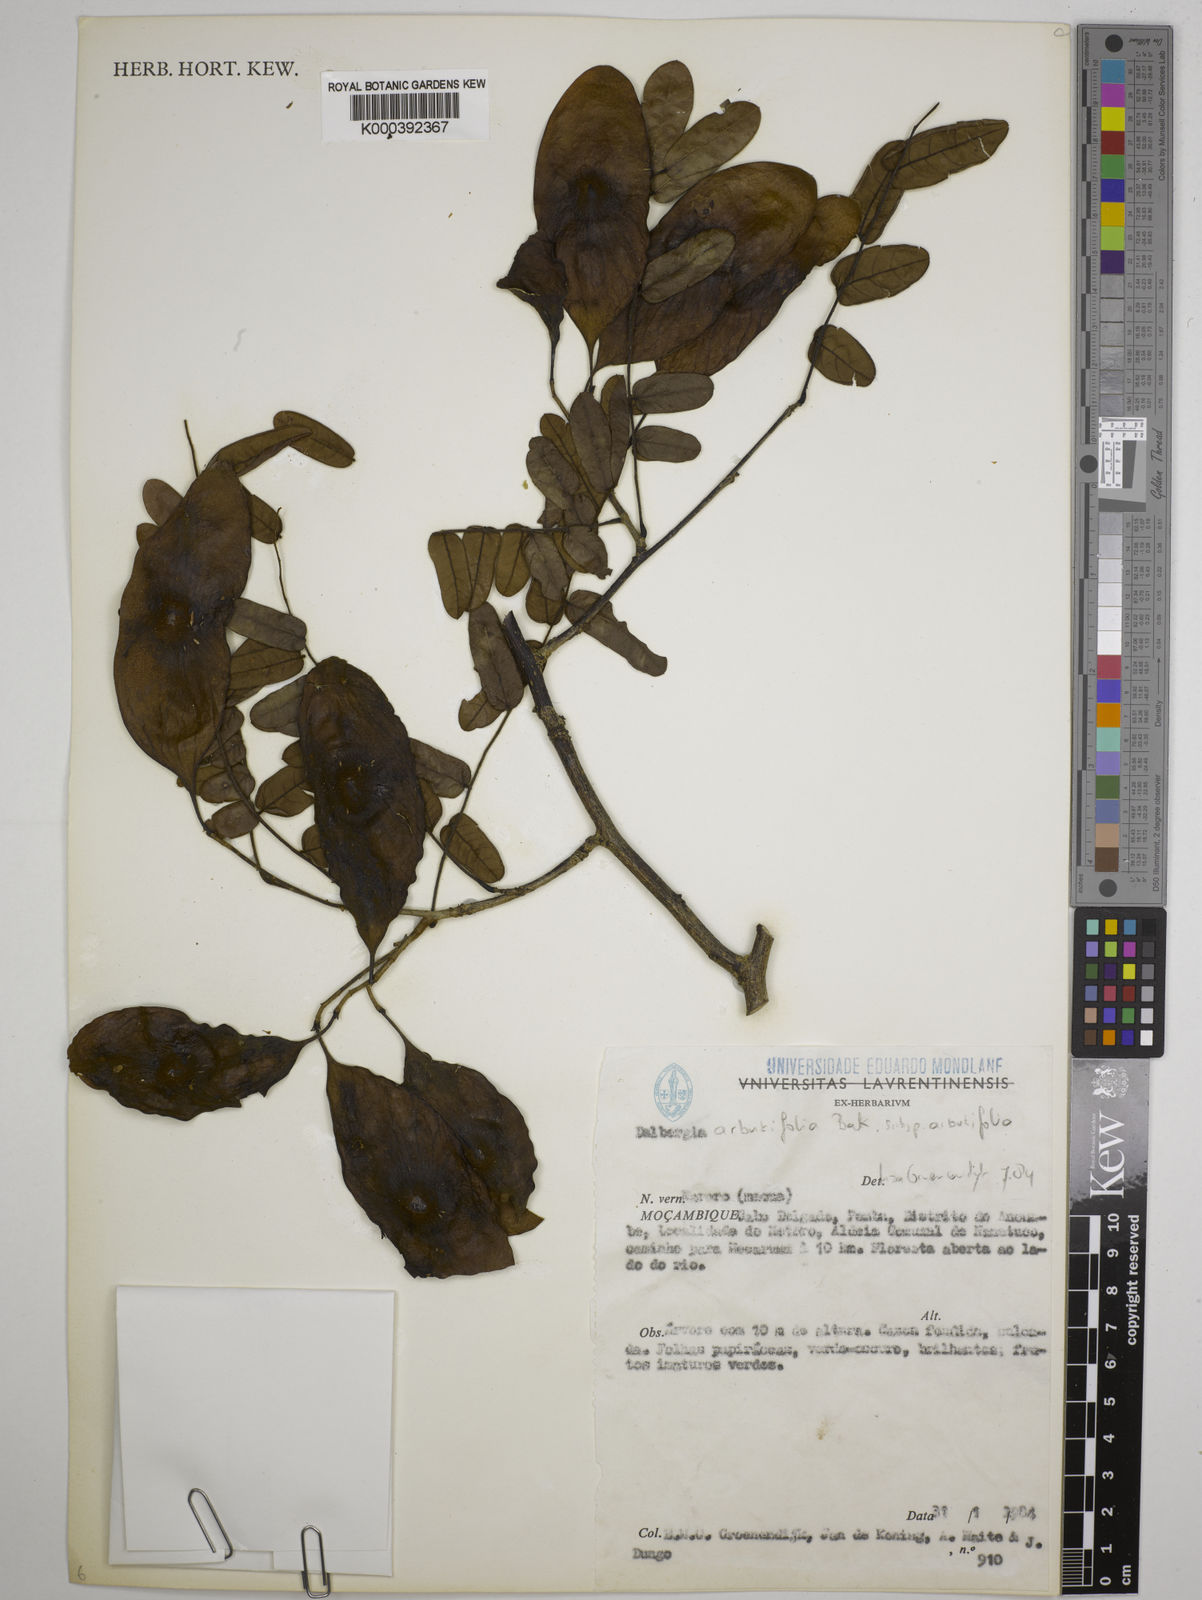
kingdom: Plantae
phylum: Tracheophyta
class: Magnoliopsida
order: Fabales
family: Fabaceae
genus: Dalbergia
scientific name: Dalbergia
